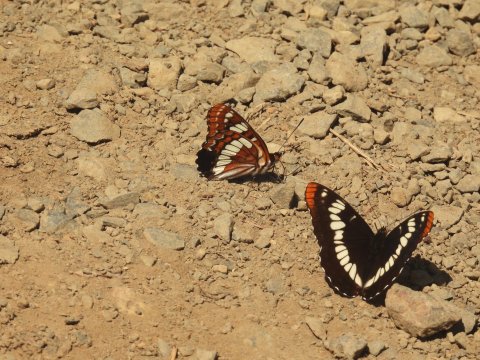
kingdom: Animalia
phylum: Arthropoda
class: Insecta
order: Lepidoptera
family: Nymphalidae
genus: Limenitis
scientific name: Limenitis lorquini
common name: Lorquin's Admiral
